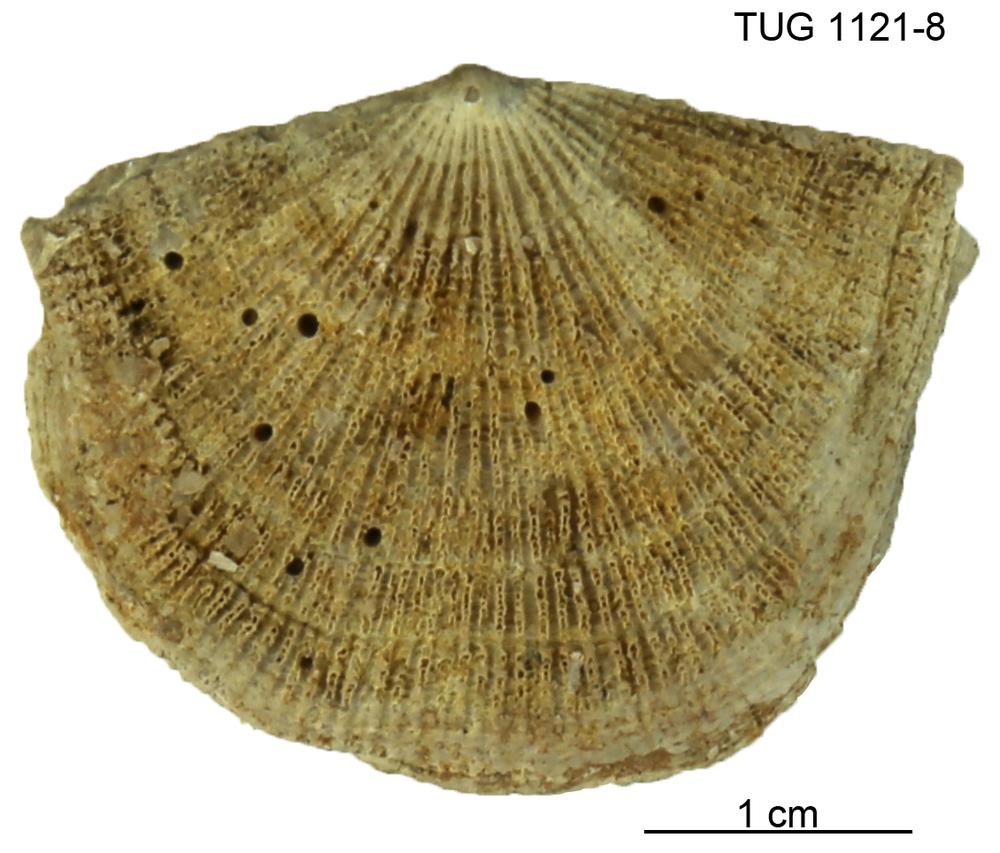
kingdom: Animalia
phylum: Brachiopoda
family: Gonambonitidae
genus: Estlandia
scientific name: Estlandia Orthisina marginata
